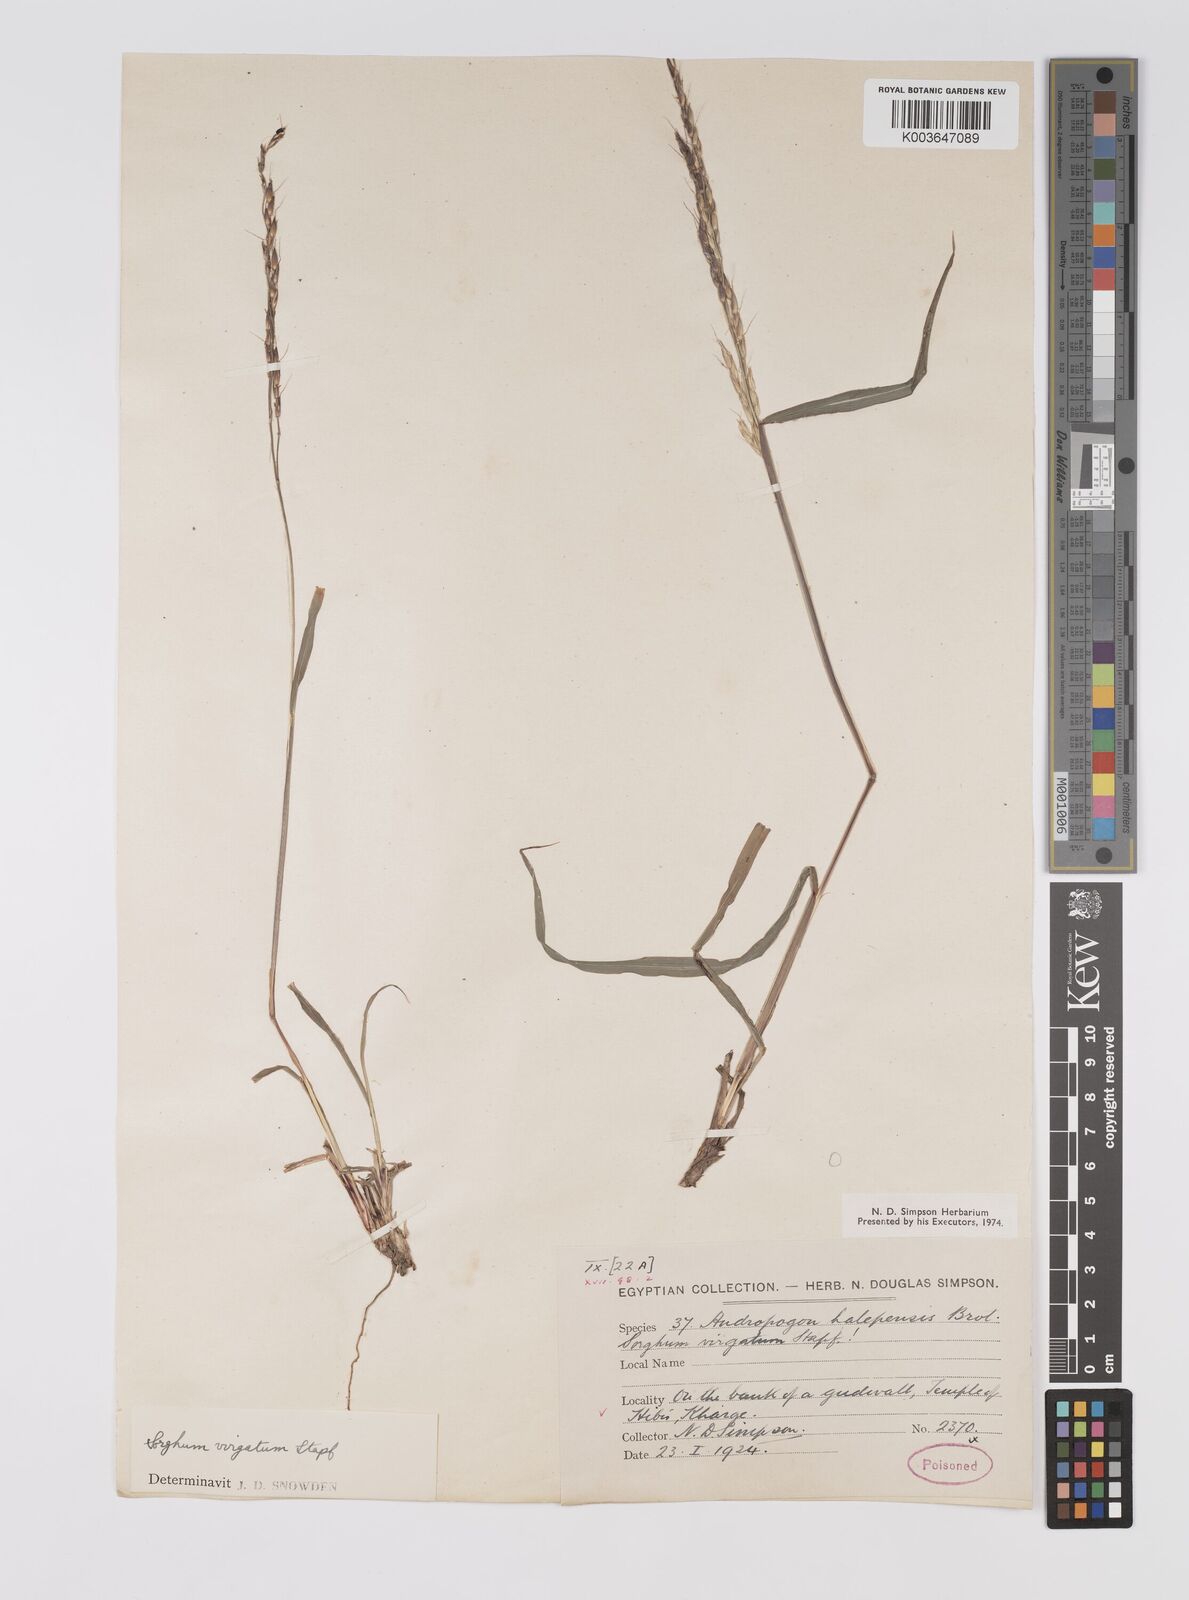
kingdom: Plantae
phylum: Tracheophyta
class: Liliopsida
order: Poales
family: Poaceae
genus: Sorghum
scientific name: Sorghum virgatum
